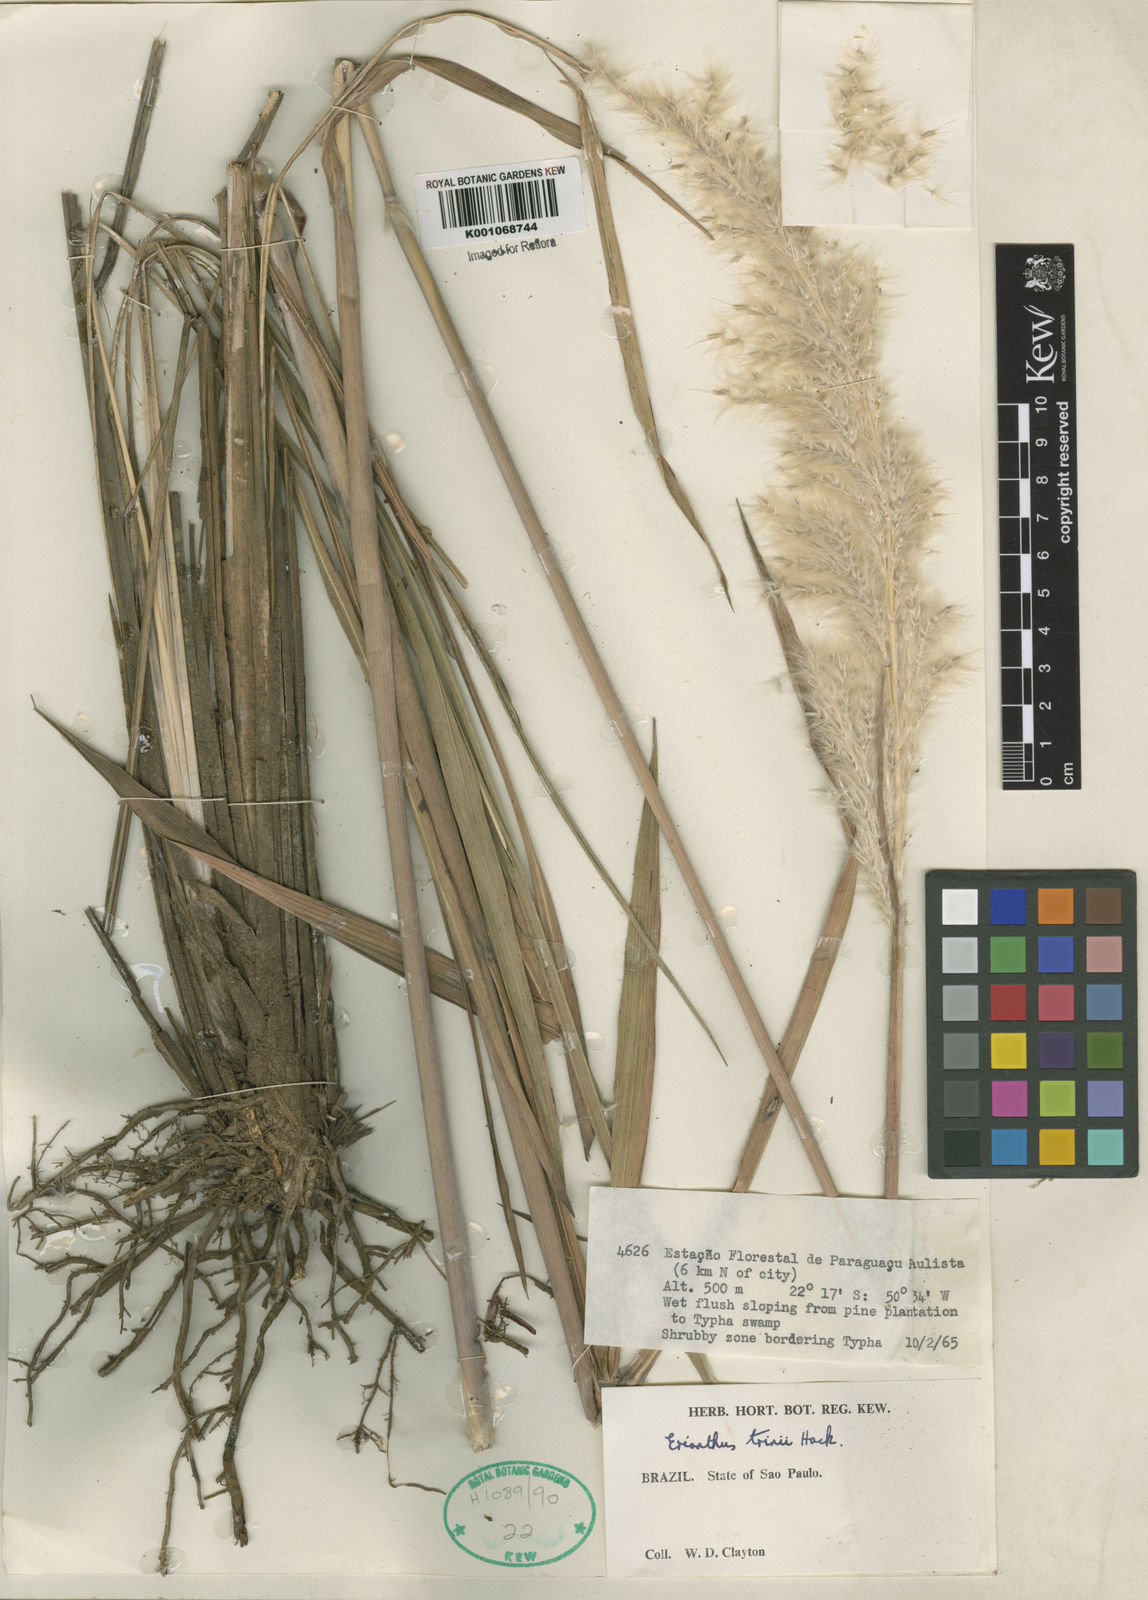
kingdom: Plantae
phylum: Tracheophyta
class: Liliopsida
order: Poales
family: Poaceae
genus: Erianthus
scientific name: Erianthus trinii
